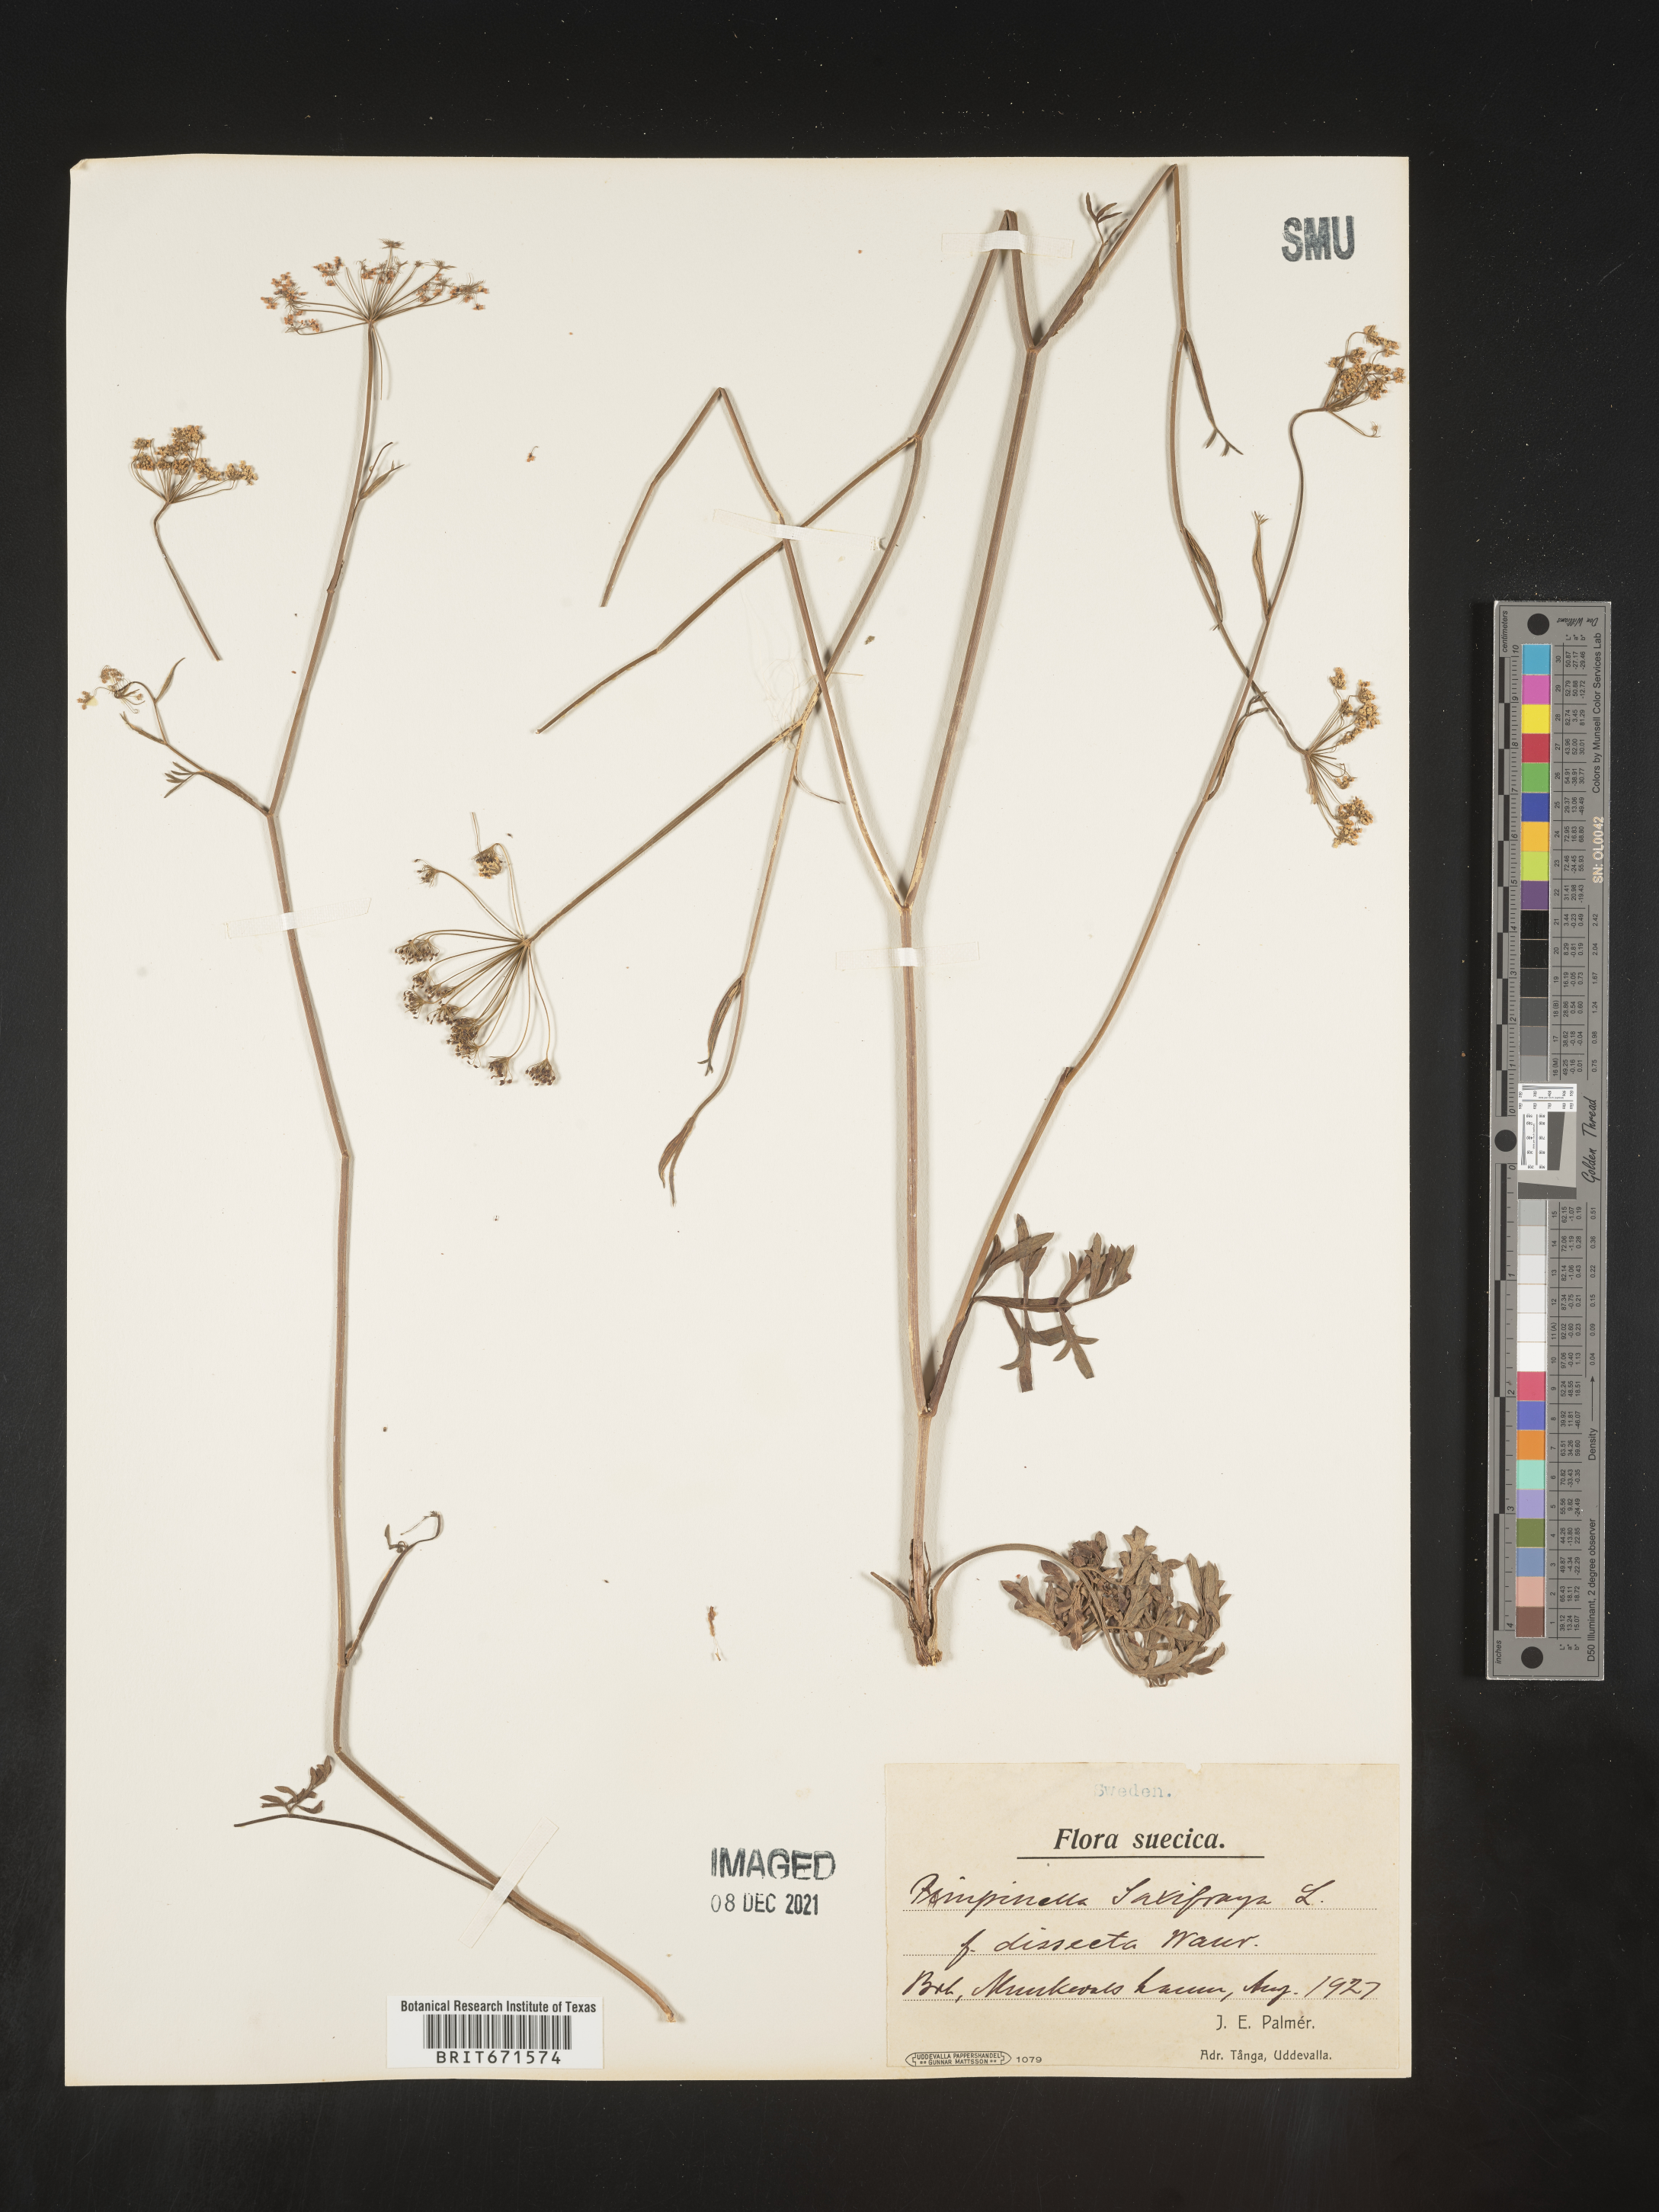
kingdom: Plantae
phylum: Tracheophyta
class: Magnoliopsida
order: Apiales
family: Apiaceae
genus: Pimpinella
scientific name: Pimpinella
